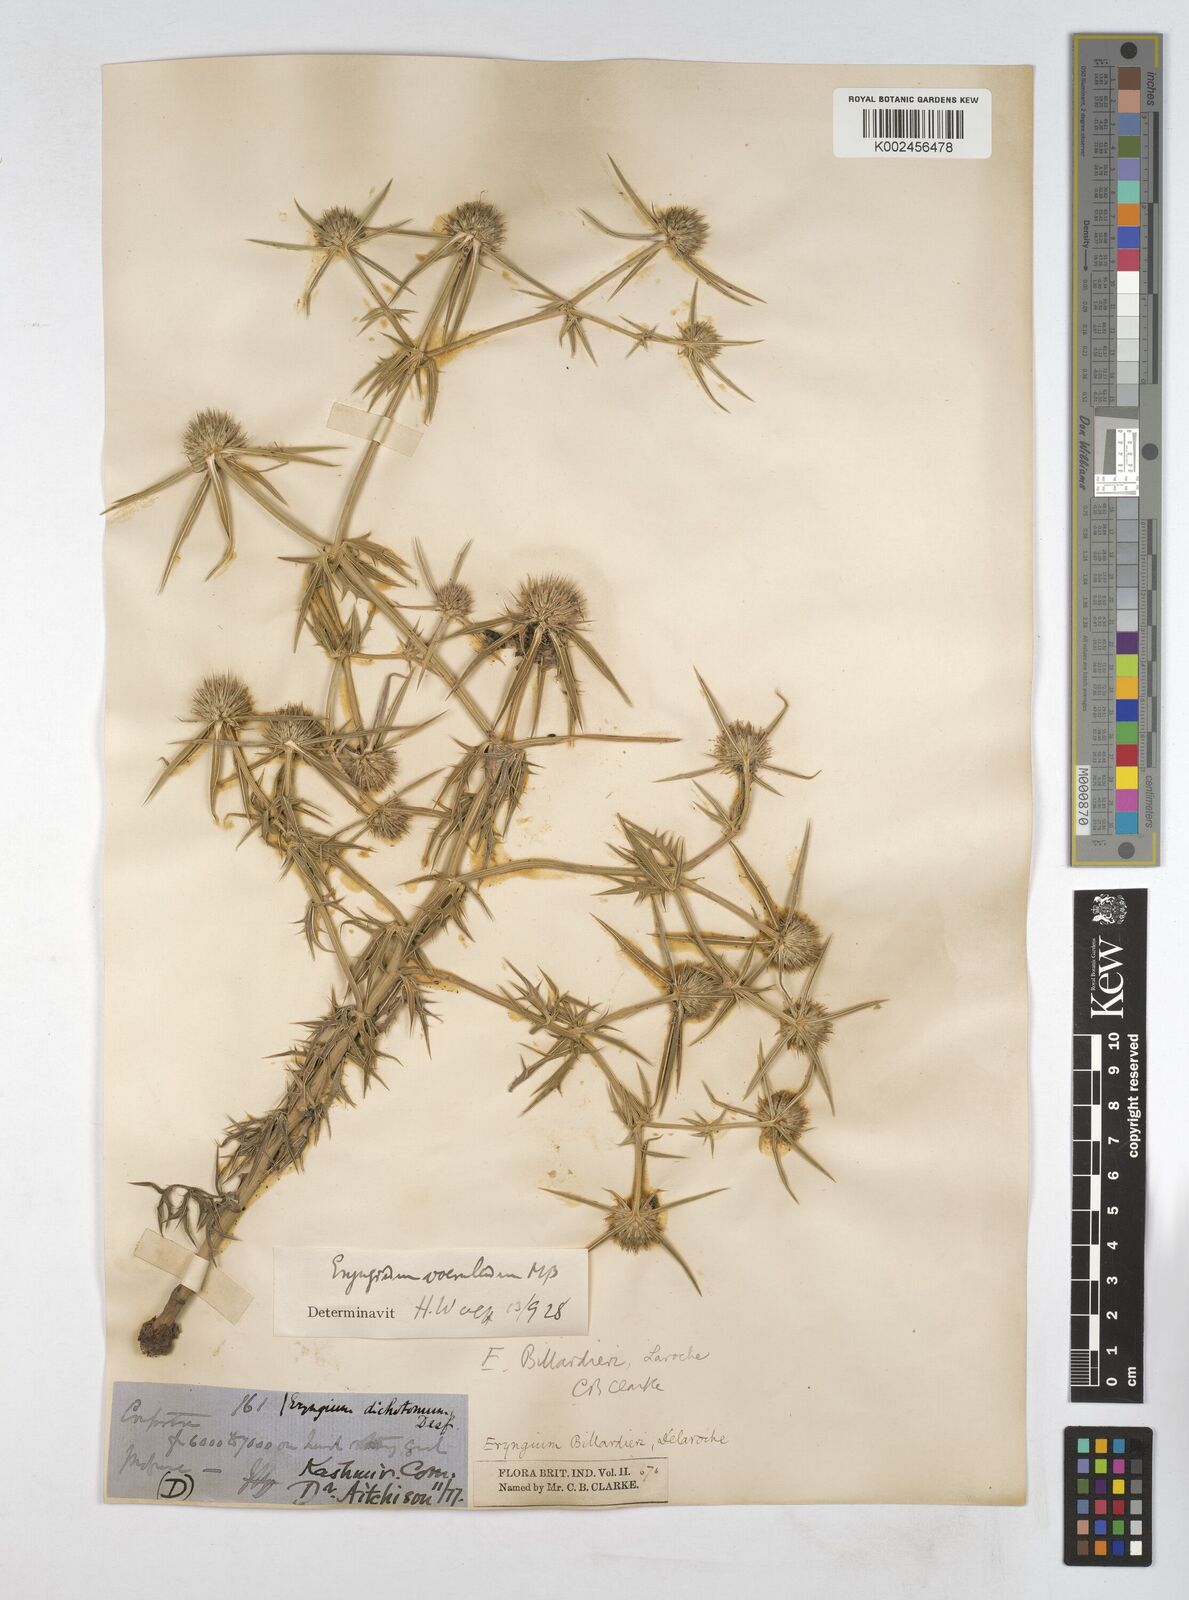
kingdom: Plantae
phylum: Tracheophyta
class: Magnoliopsida
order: Apiales
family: Apiaceae
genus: Eryngium
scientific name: Eryngium caeruleum
